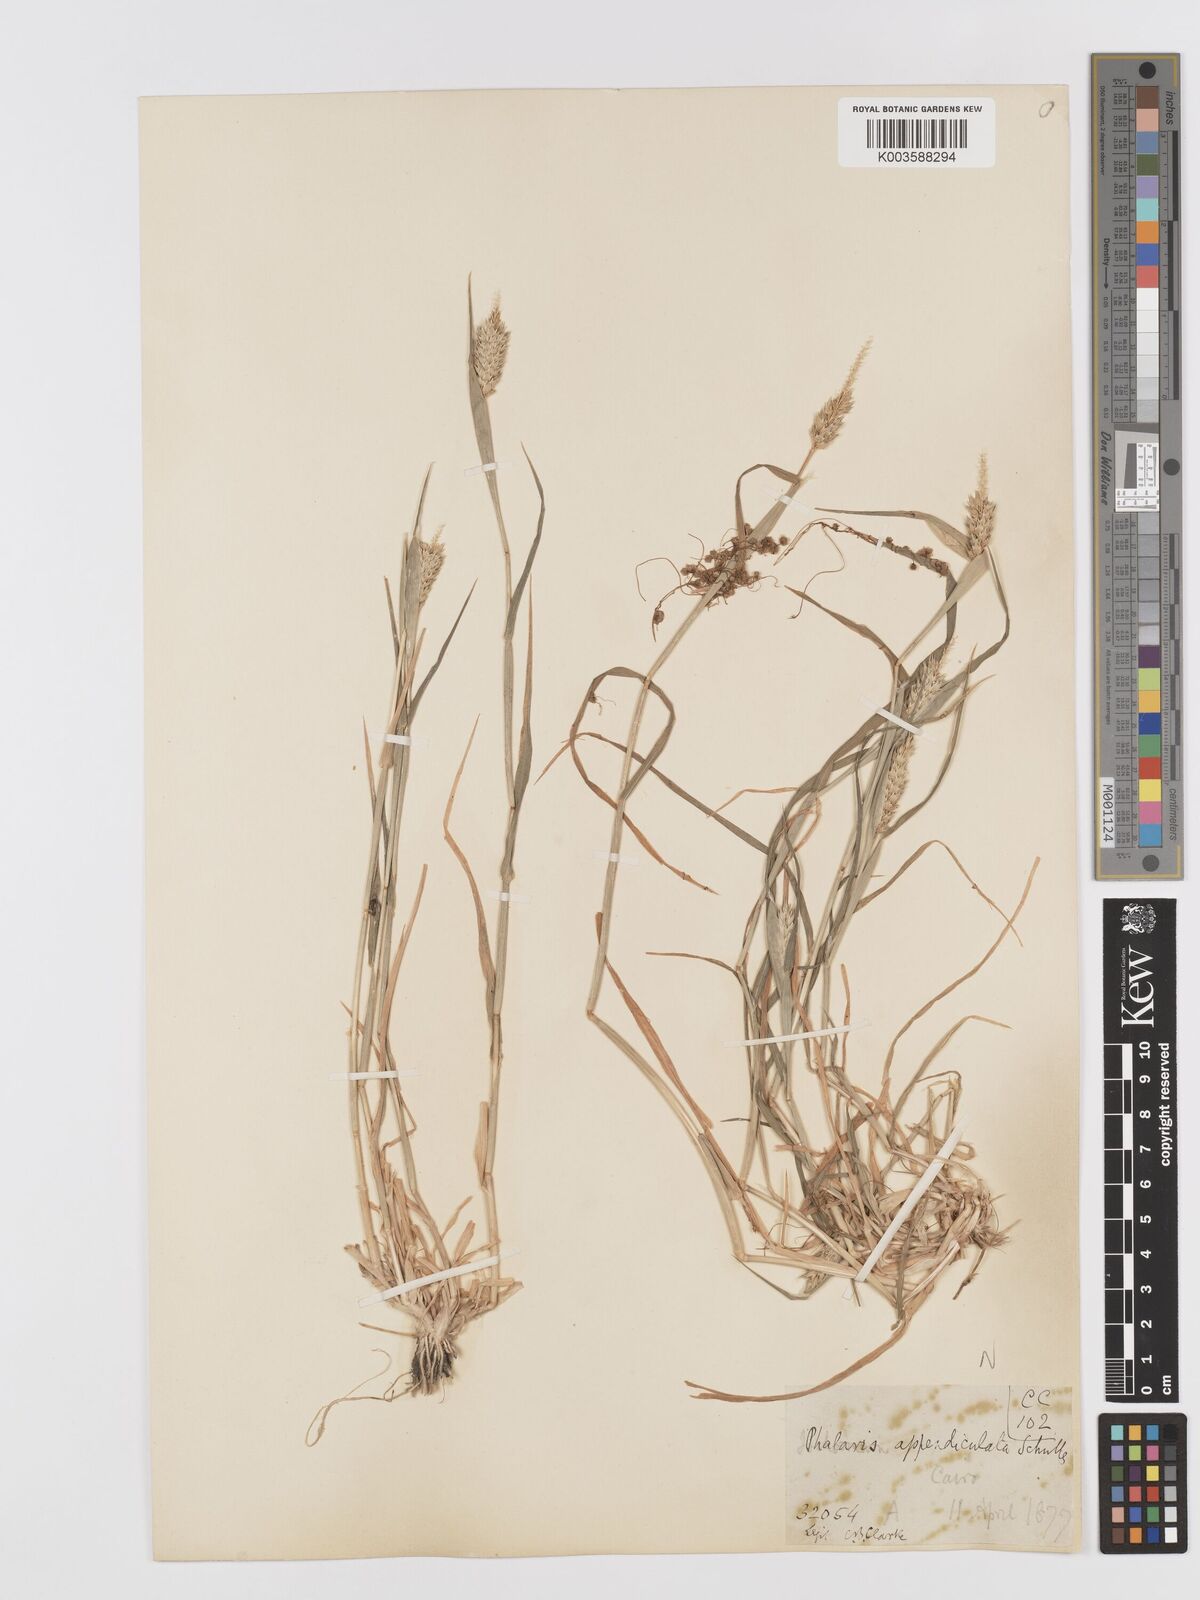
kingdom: Plantae
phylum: Tracheophyta
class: Liliopsida
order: Poales
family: Poaceae
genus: Phalaris
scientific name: Phalaris paradoxa
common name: Awned canary-grass
